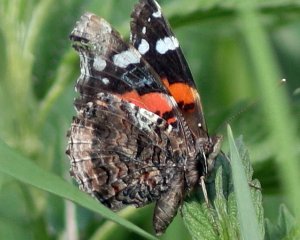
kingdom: Animalia
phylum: Arthropoda
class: Insecta
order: Lepidoptera
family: Nymphalidae
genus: Vanessa
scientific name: Vanessa atalanta
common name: Red Admiral
